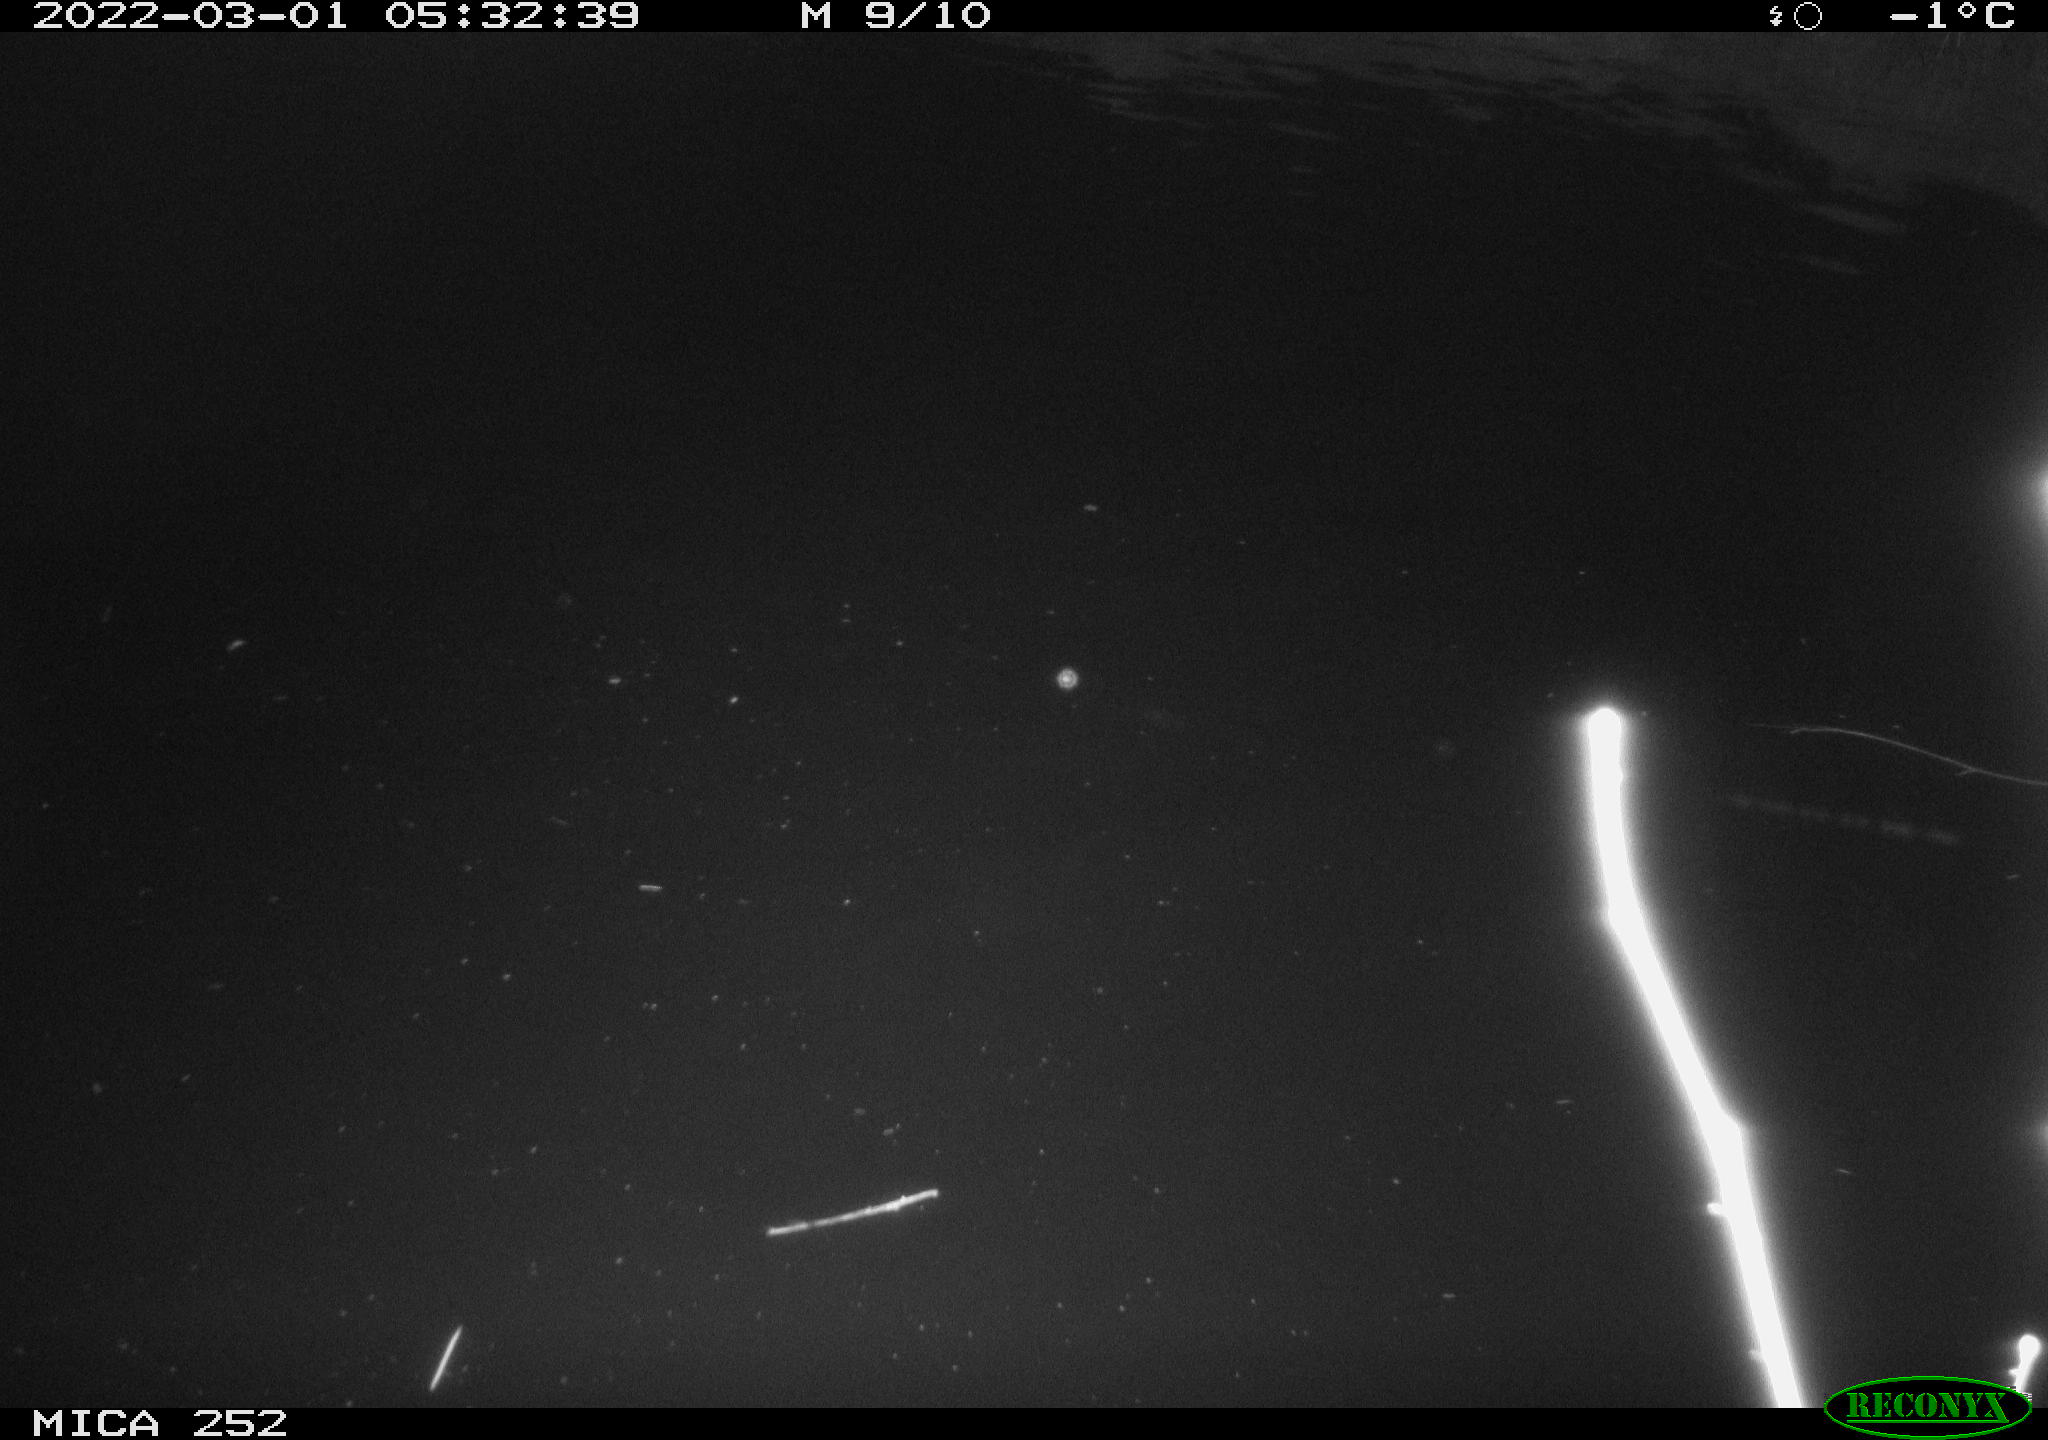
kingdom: Animalia
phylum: Chordata
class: Mammalia
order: Rodentia
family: Castoridae
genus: Castor
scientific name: Castor fiber
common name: Eurasian beaver
